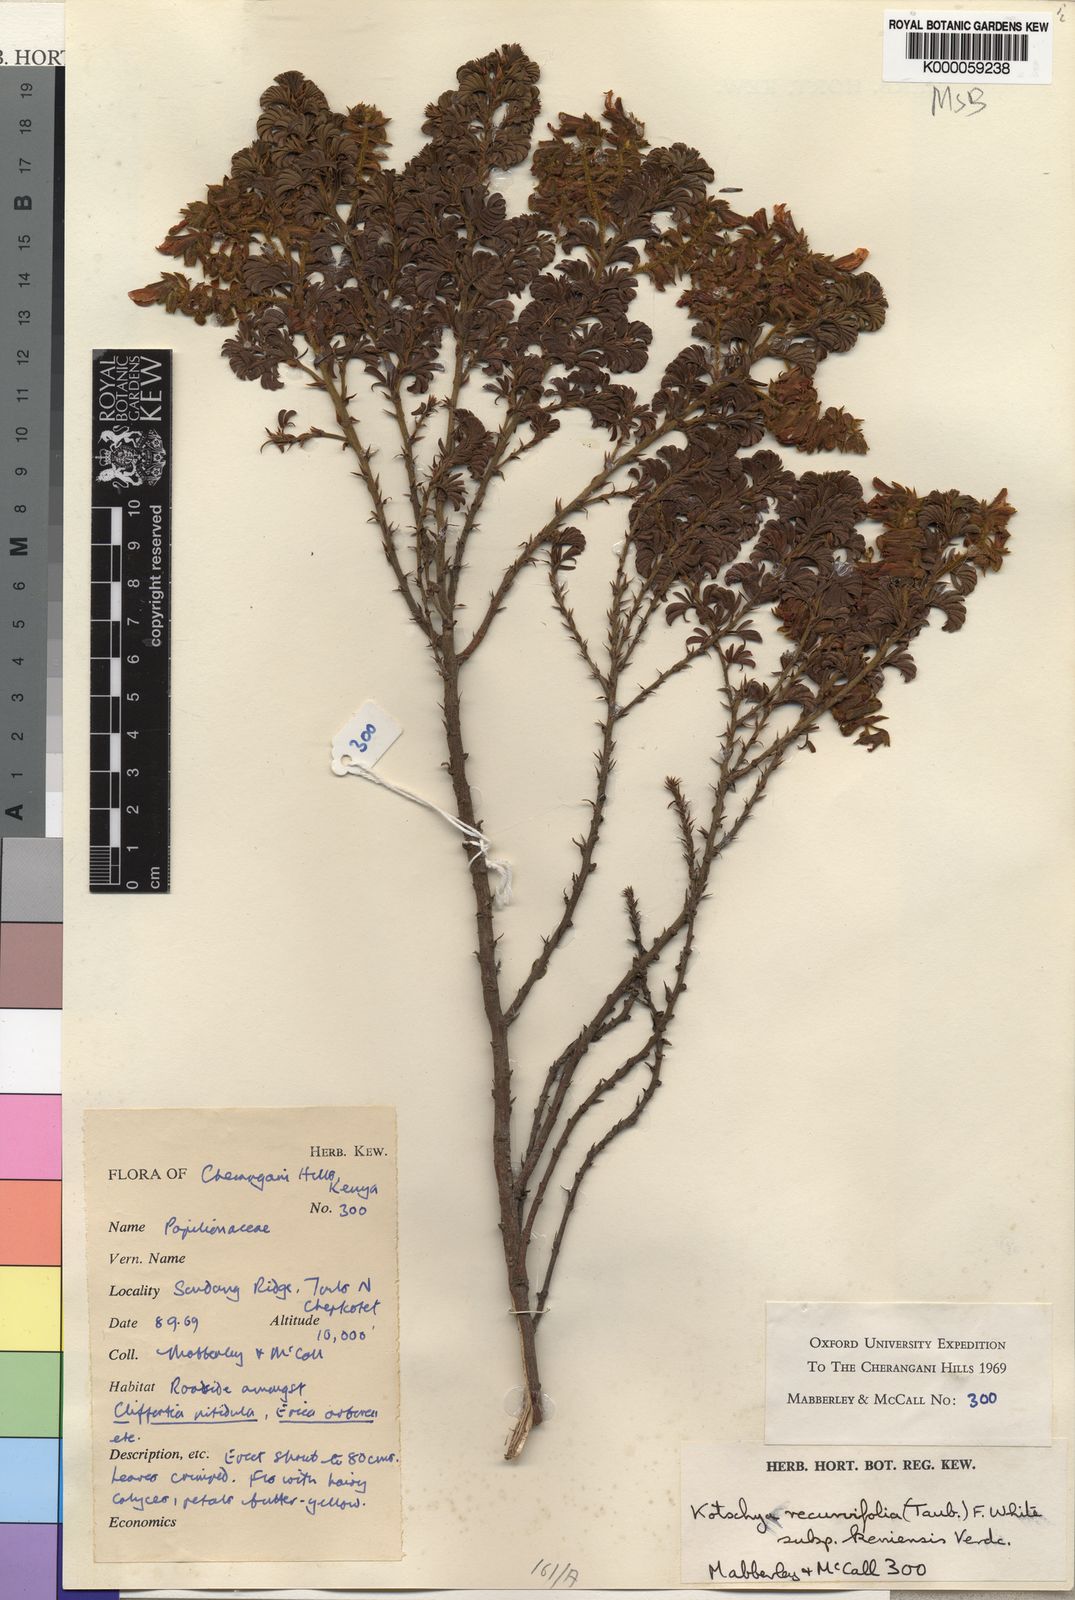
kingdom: Plantae
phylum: Tracheophyta
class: Magnoliopsida
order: Fabales
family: Fabaceae
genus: Kotschya
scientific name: Kotschya recurvifolia
